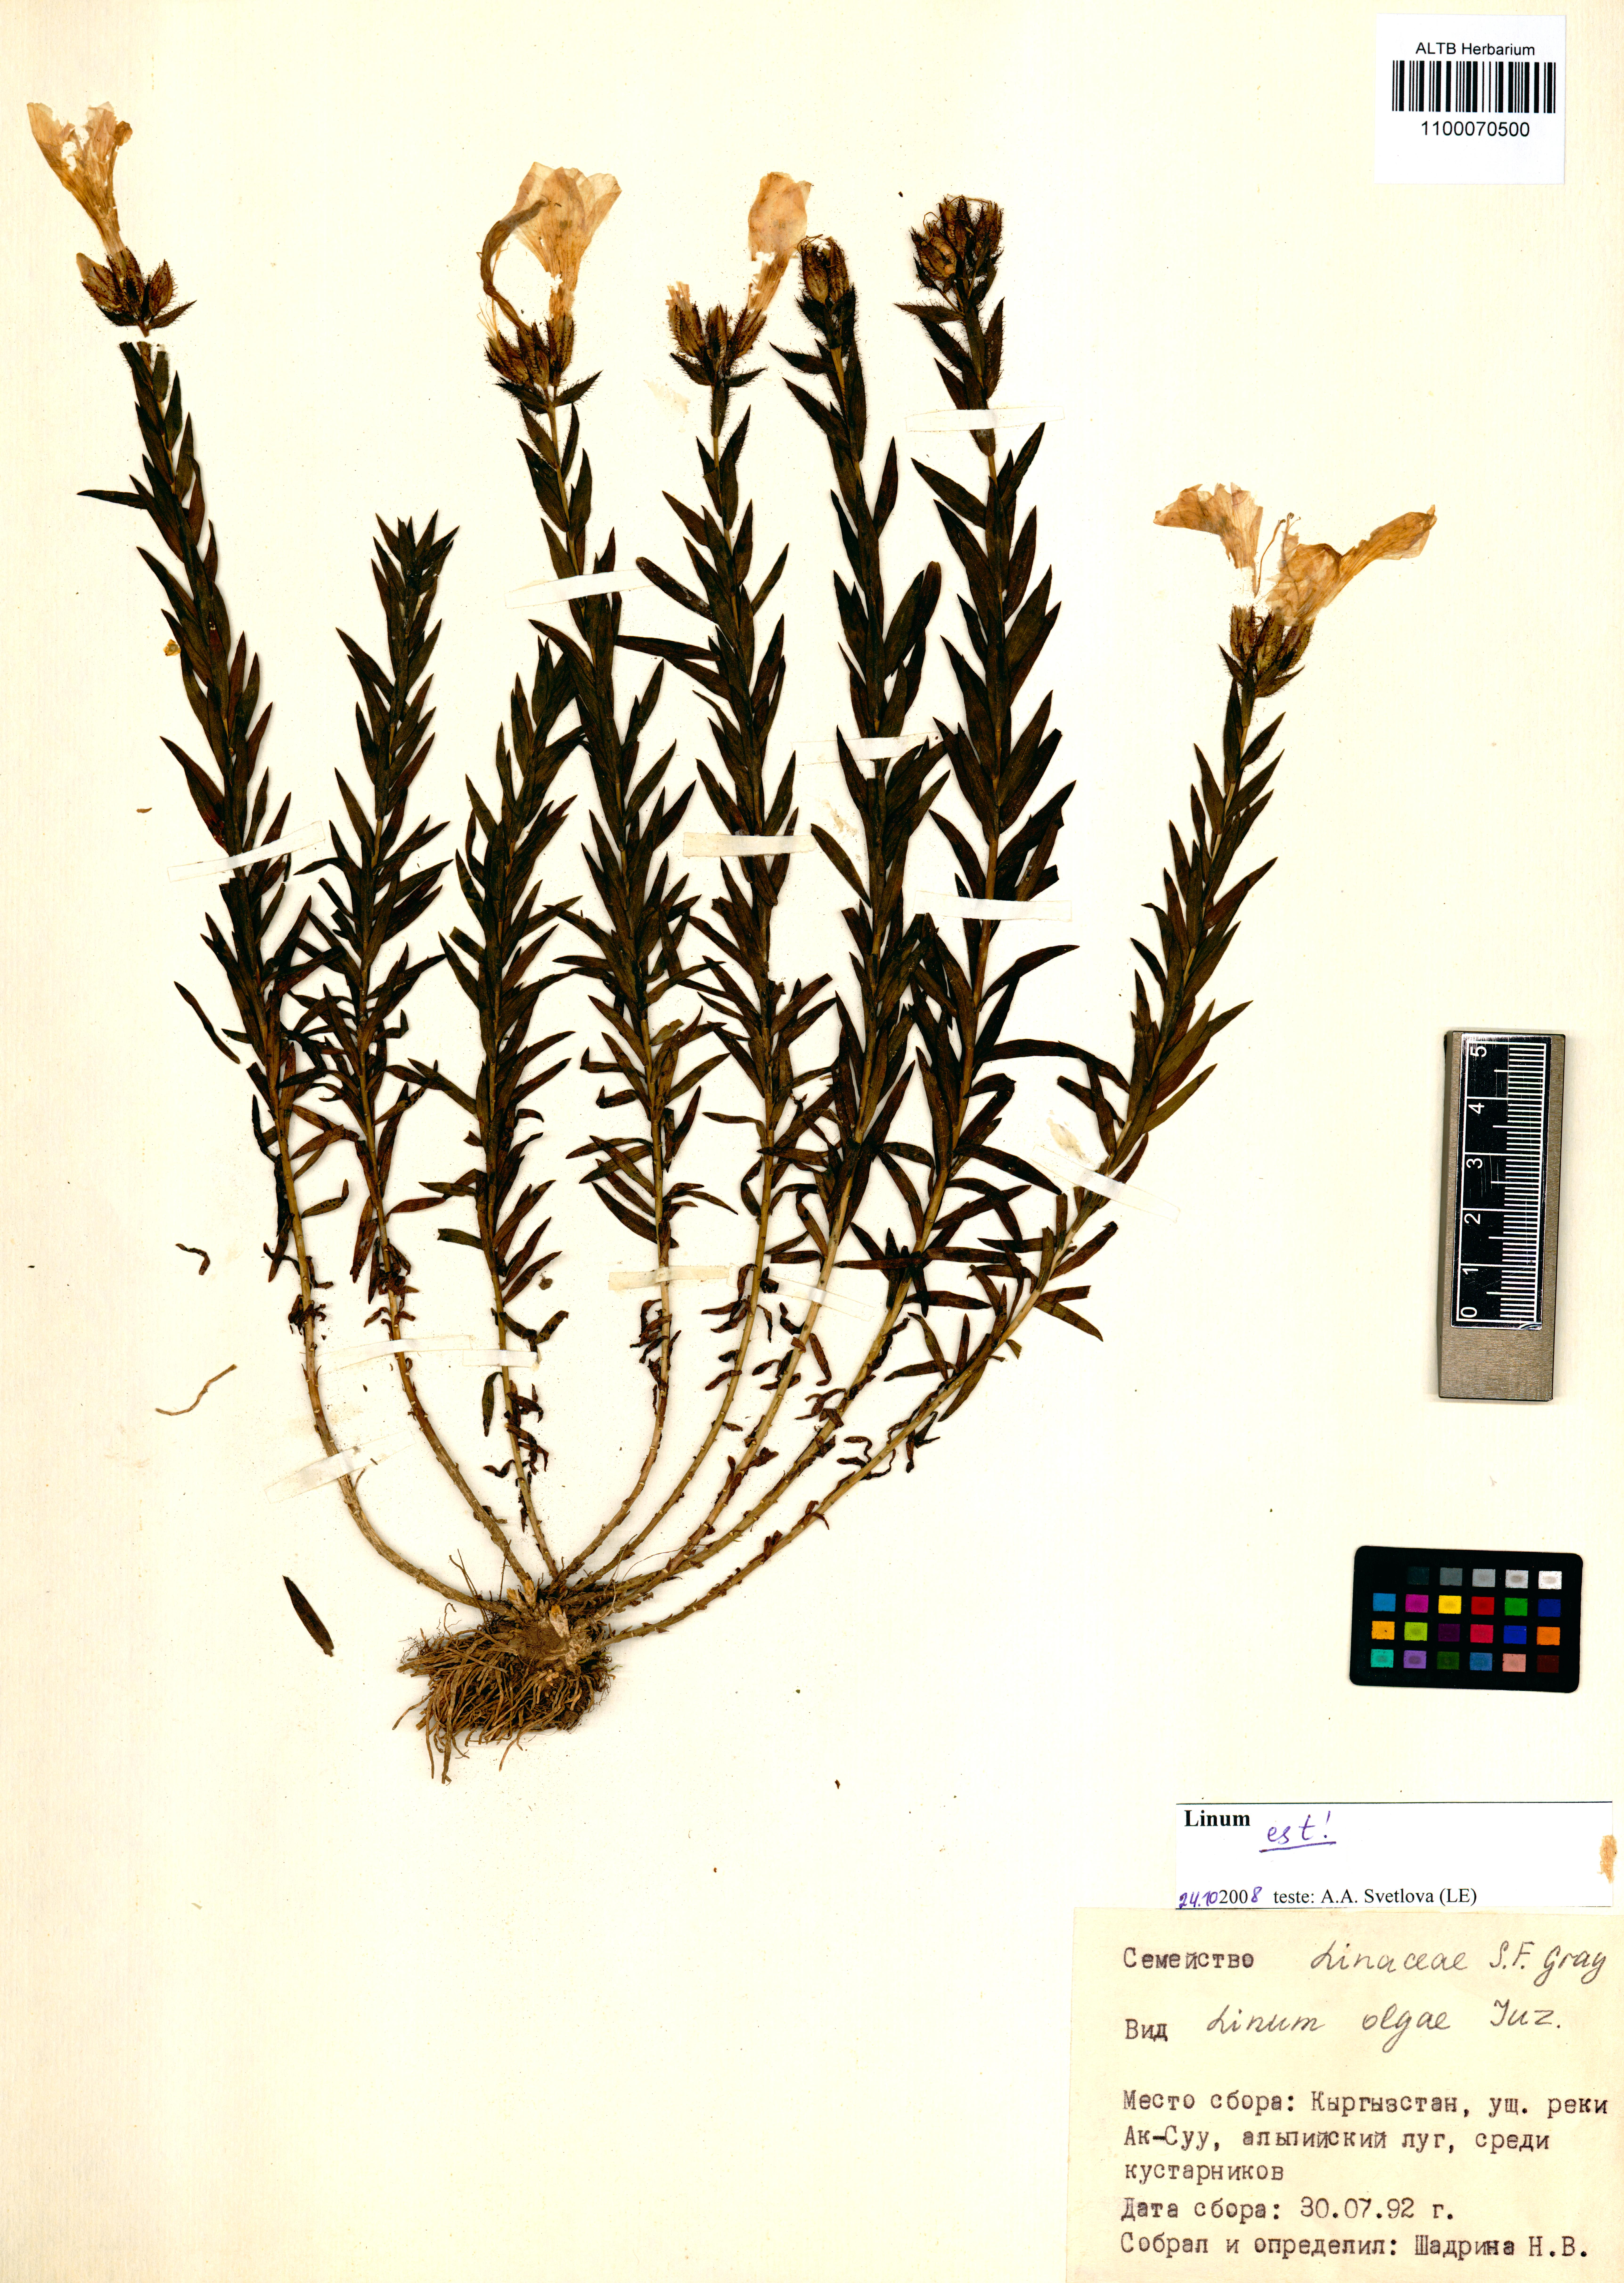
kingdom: Plantae
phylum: Tracheophyta
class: Magnoliopsida
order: Malpighiales
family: Linaceae
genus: Linum
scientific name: Linum olgae
